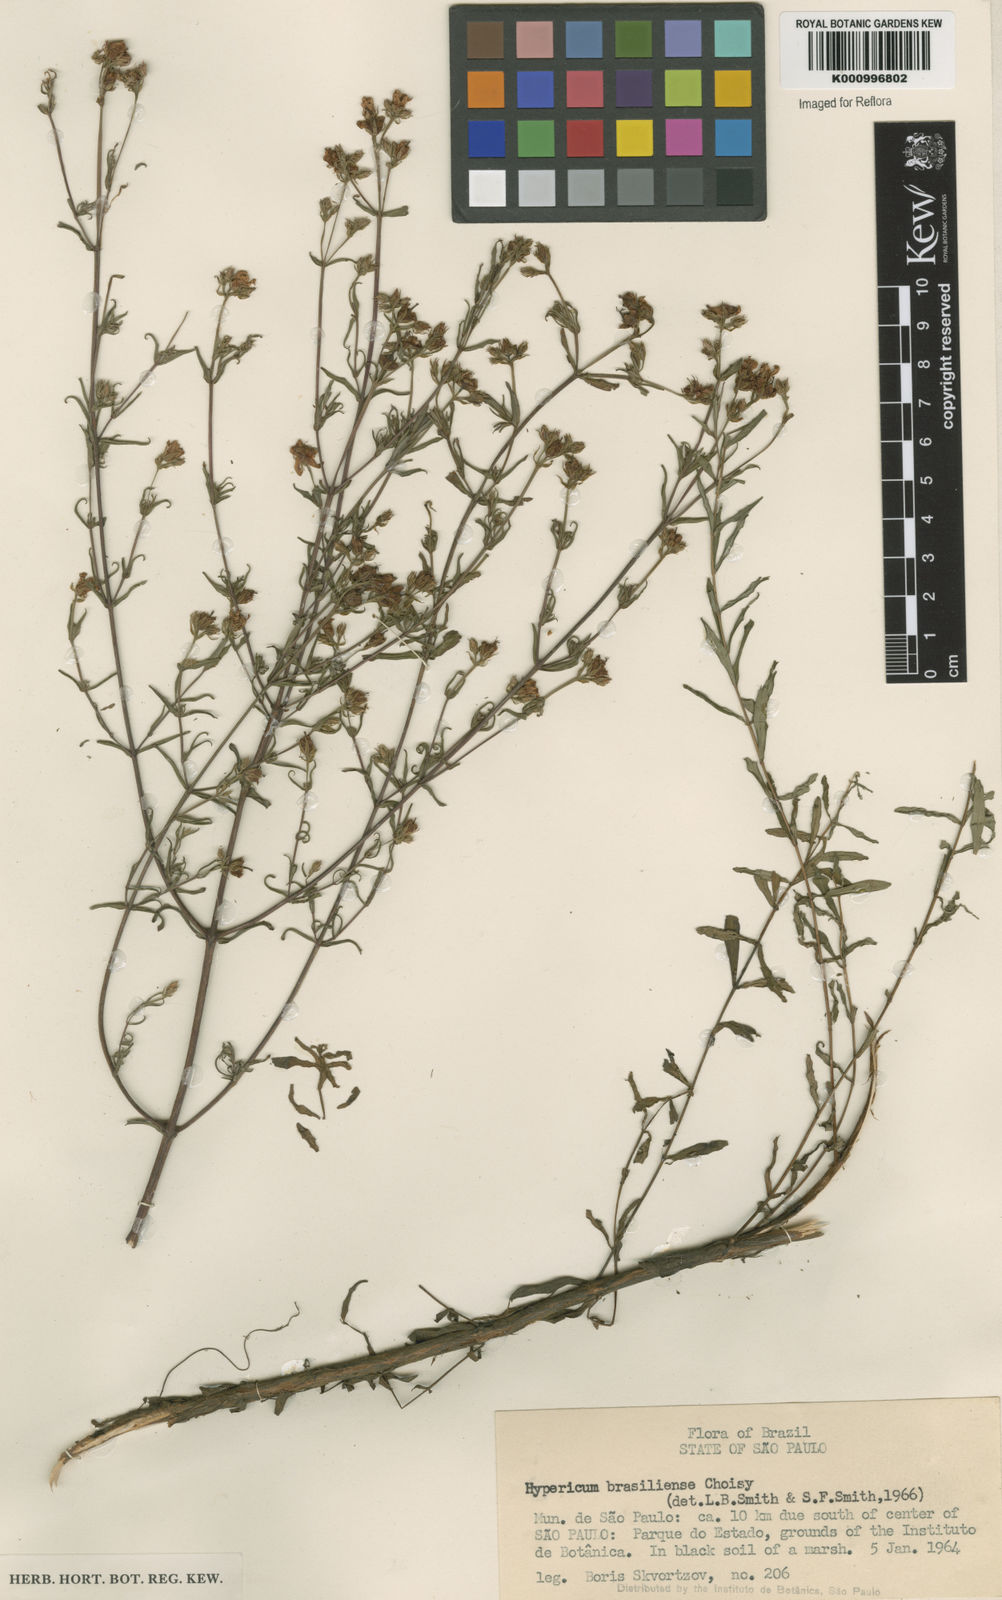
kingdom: Plantae
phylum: Tracheophyta
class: Magnoliopsida
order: Malpighiales
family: Hypericaceae
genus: Hypericum
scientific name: Hypericum brasiliense
